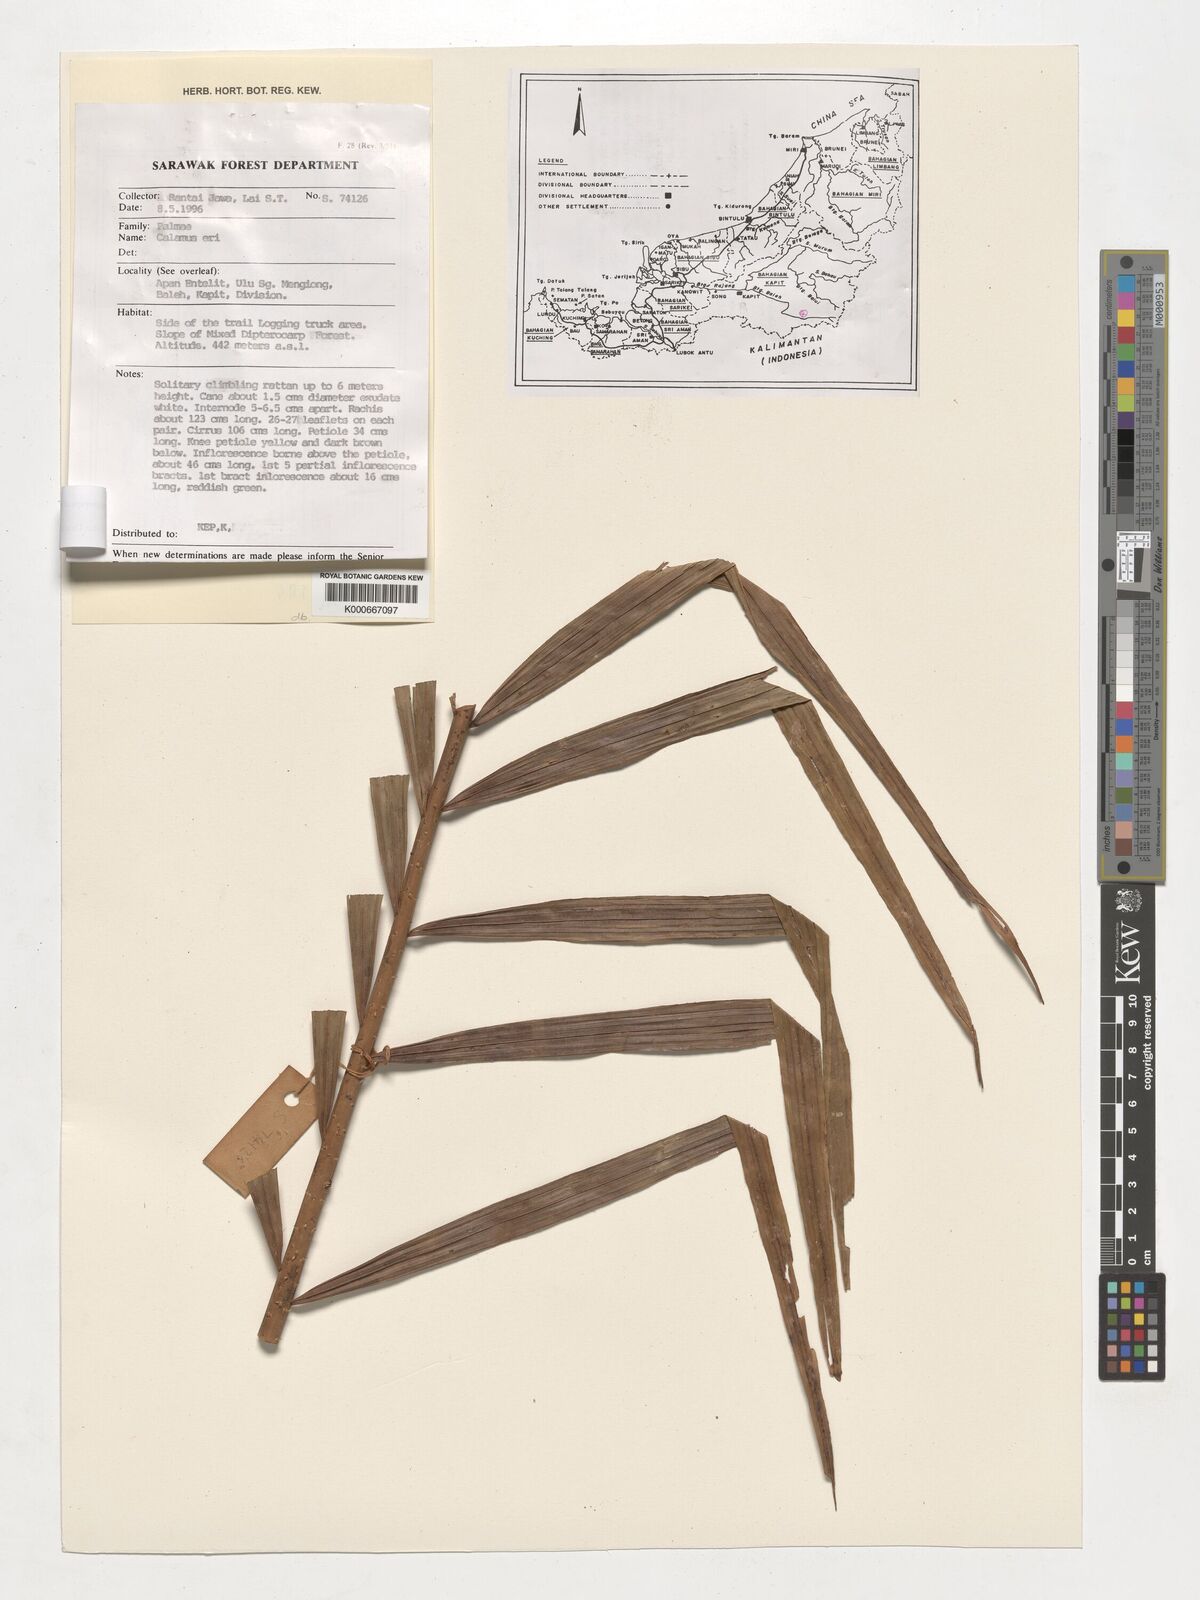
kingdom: Plantae
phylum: Tracheophyta
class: Liliopsida
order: Arecales
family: Arecaceae
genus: Calamus
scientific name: Calamus ater
